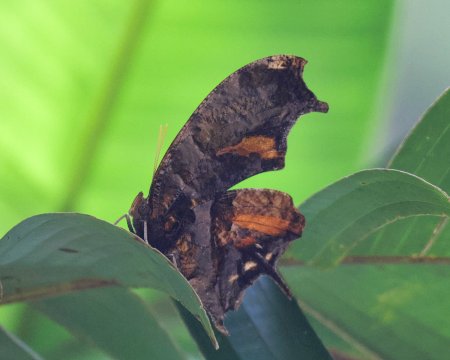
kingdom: Animalia
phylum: Arthropoda
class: Insecta
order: Lepidoptera
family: Nymphalidae
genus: Consul
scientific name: Consul fabius
